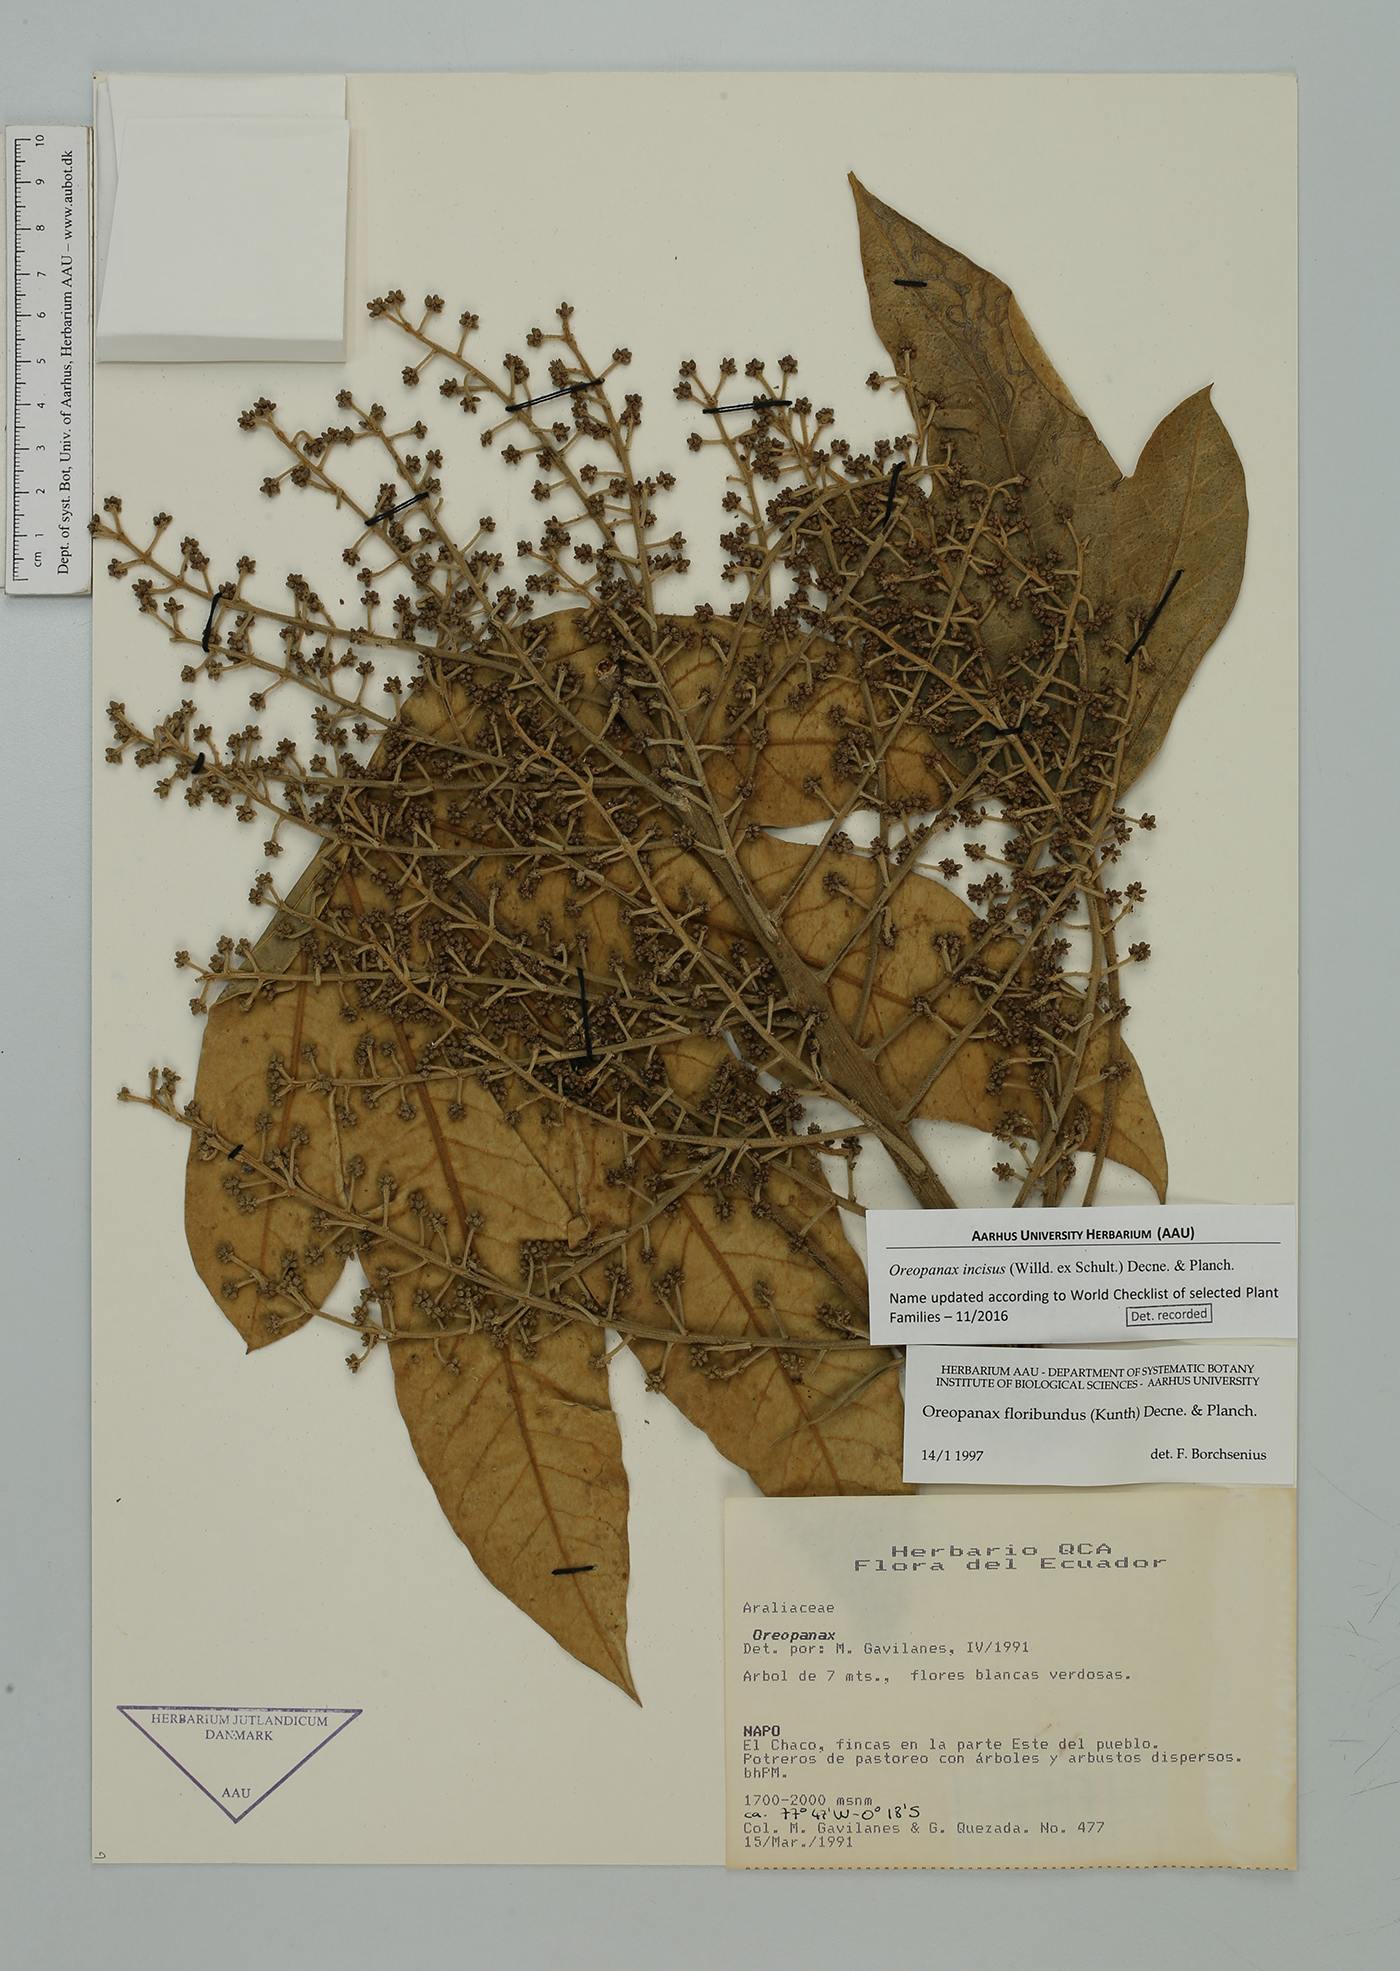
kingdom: Plantae
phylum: Tracheophyta
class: Magnoliopsida
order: Apiales
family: Araliaceae
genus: Oreopanax
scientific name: Oreopanax incisus
